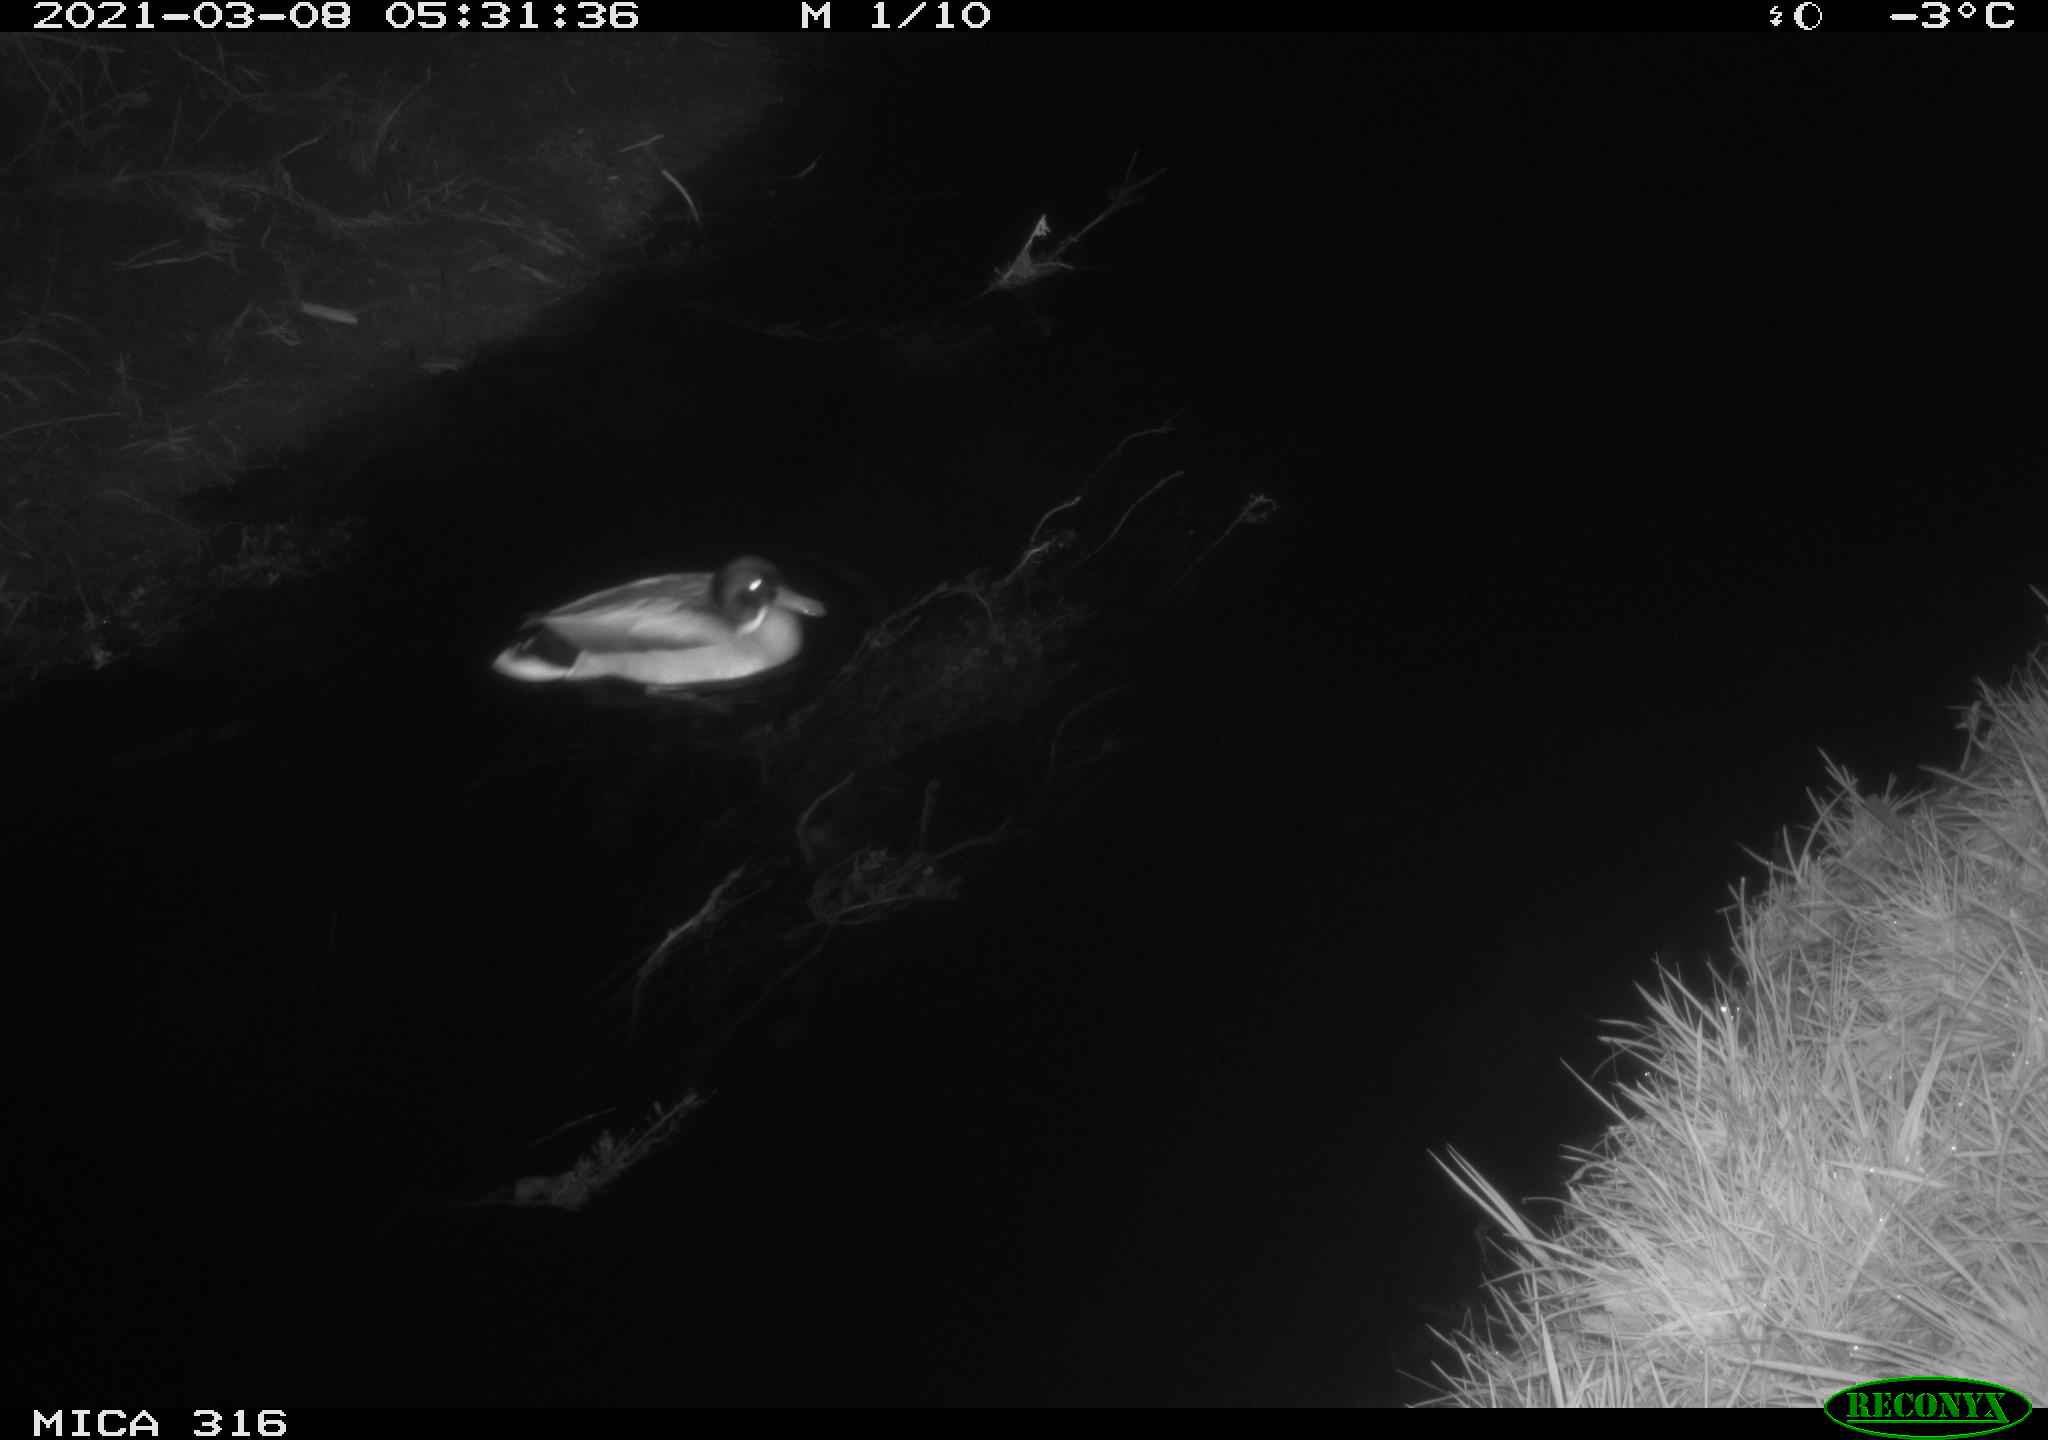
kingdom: Animalia
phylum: Chordata
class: Aves
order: Anseriformes
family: Anatidae
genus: Anas
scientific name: Anas platyrhynchos
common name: Mallard
